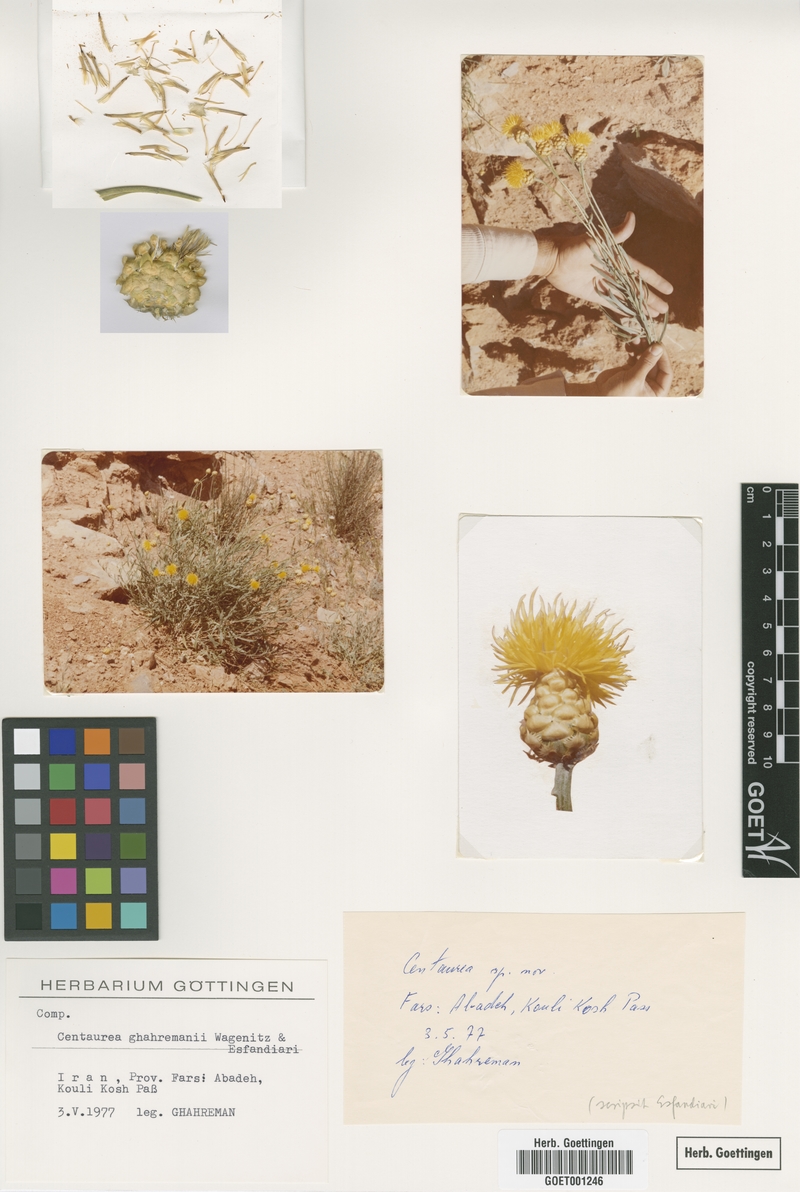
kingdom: Plantae
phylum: Tracheophyta
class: Magnoliopsida
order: Asterales
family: Asteraceae
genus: Centaurea
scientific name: Centaurea ghahremanii
